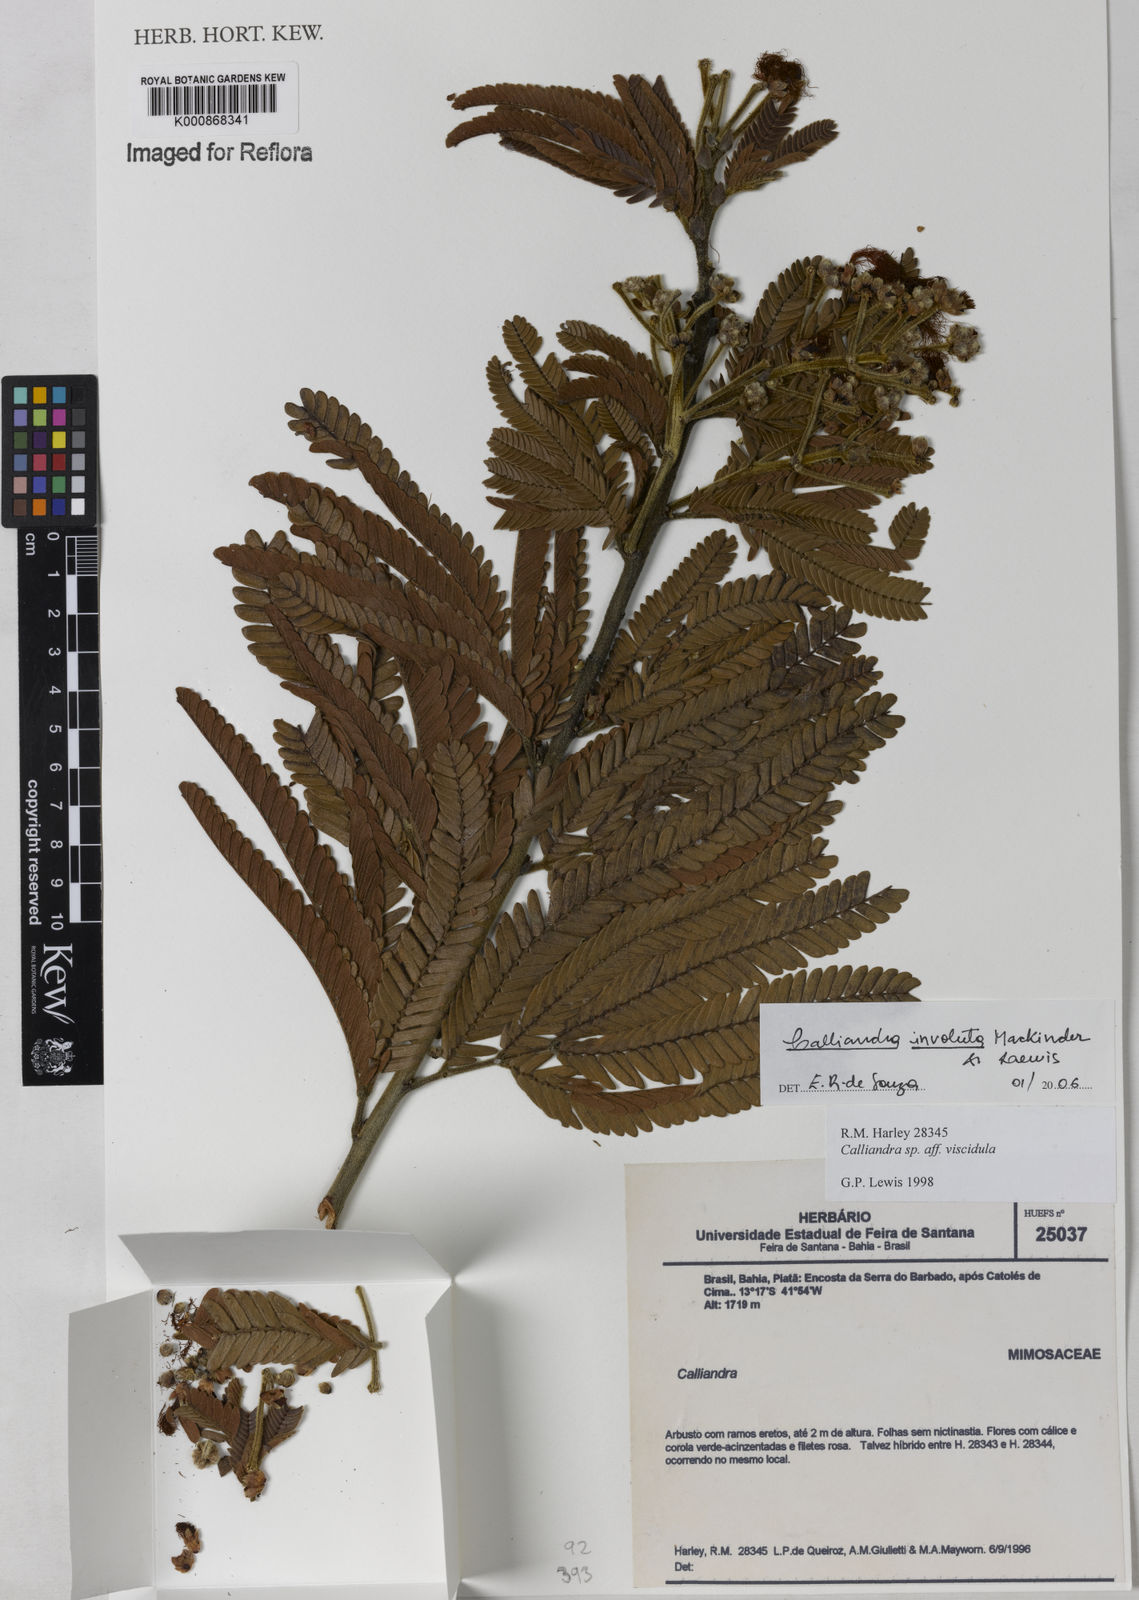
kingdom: Plantae
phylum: Tracheophyta
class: Magnoliopsida
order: Fabales
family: Fabaceae
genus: Calliandra
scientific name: Calliandra involuta
